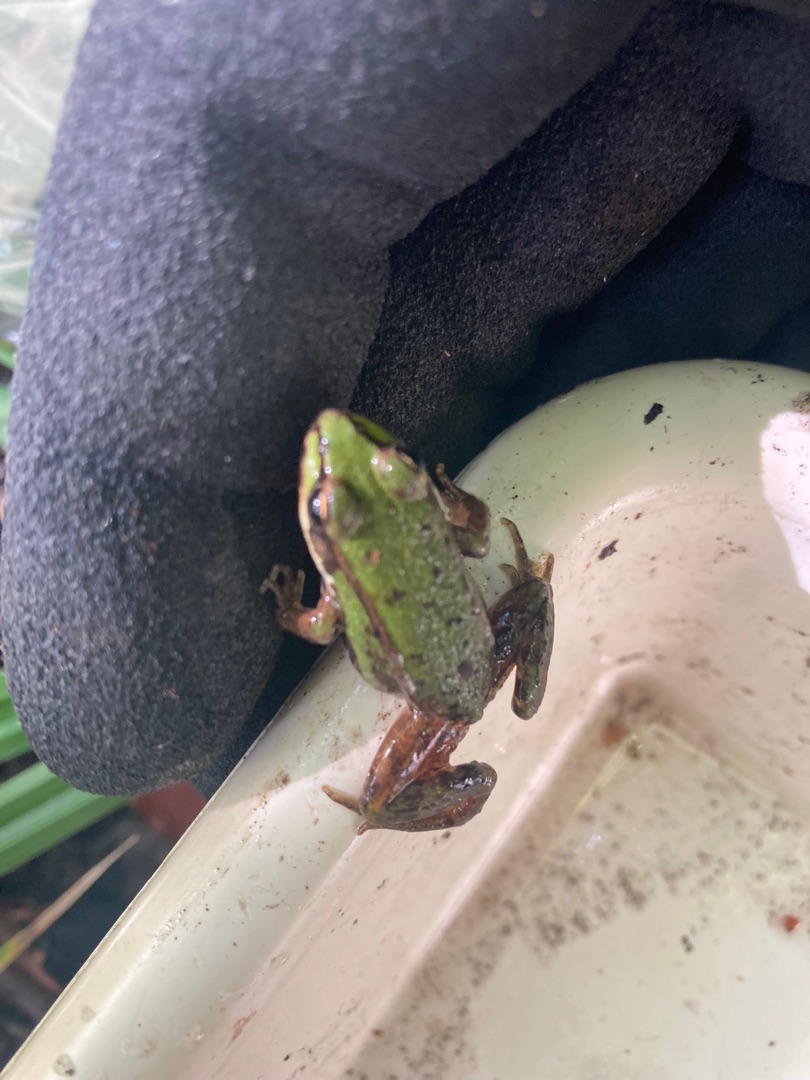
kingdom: Animalia
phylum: Chordata
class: Amphibia
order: Anura
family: Ranidae
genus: Pelophylax
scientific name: Pelophylax lessonae
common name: Grøn frø
